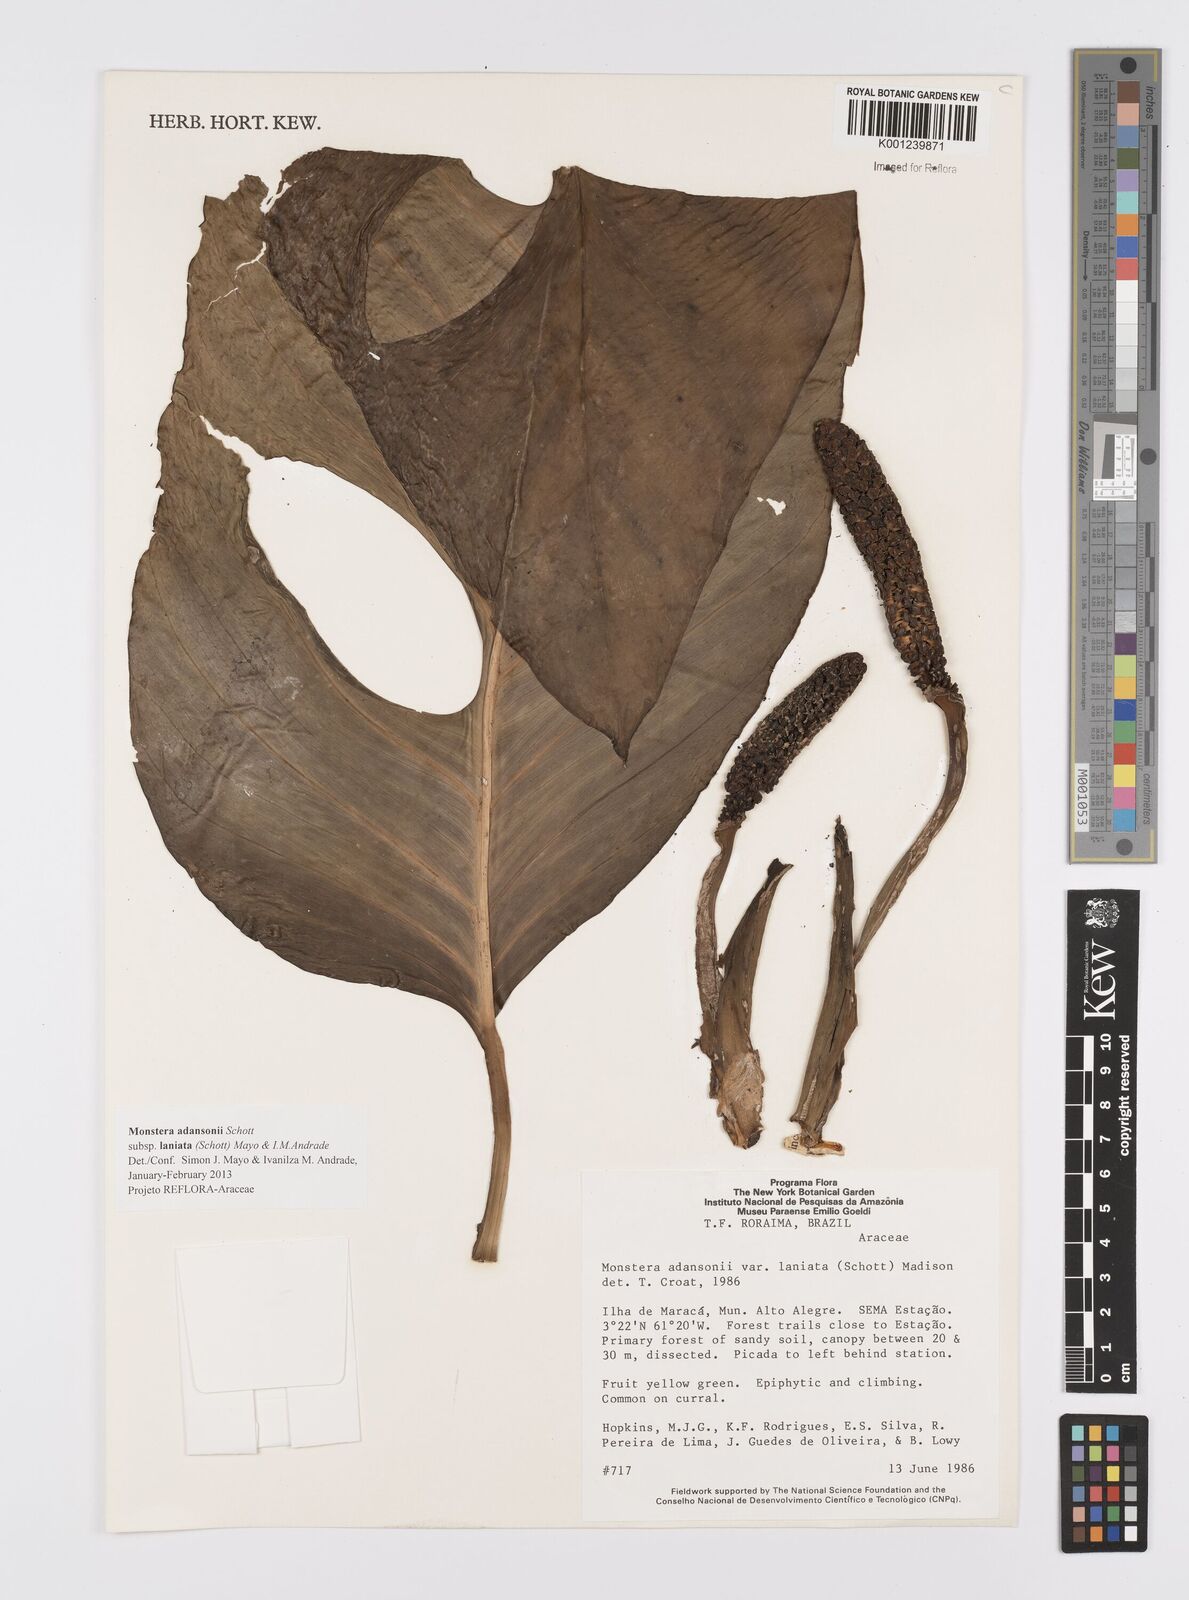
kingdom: Plantae
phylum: Tracheophyta
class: Liliopsida
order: Alismatales
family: Araceae
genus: Monstera
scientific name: Monstera adansonii
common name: Tarovine
